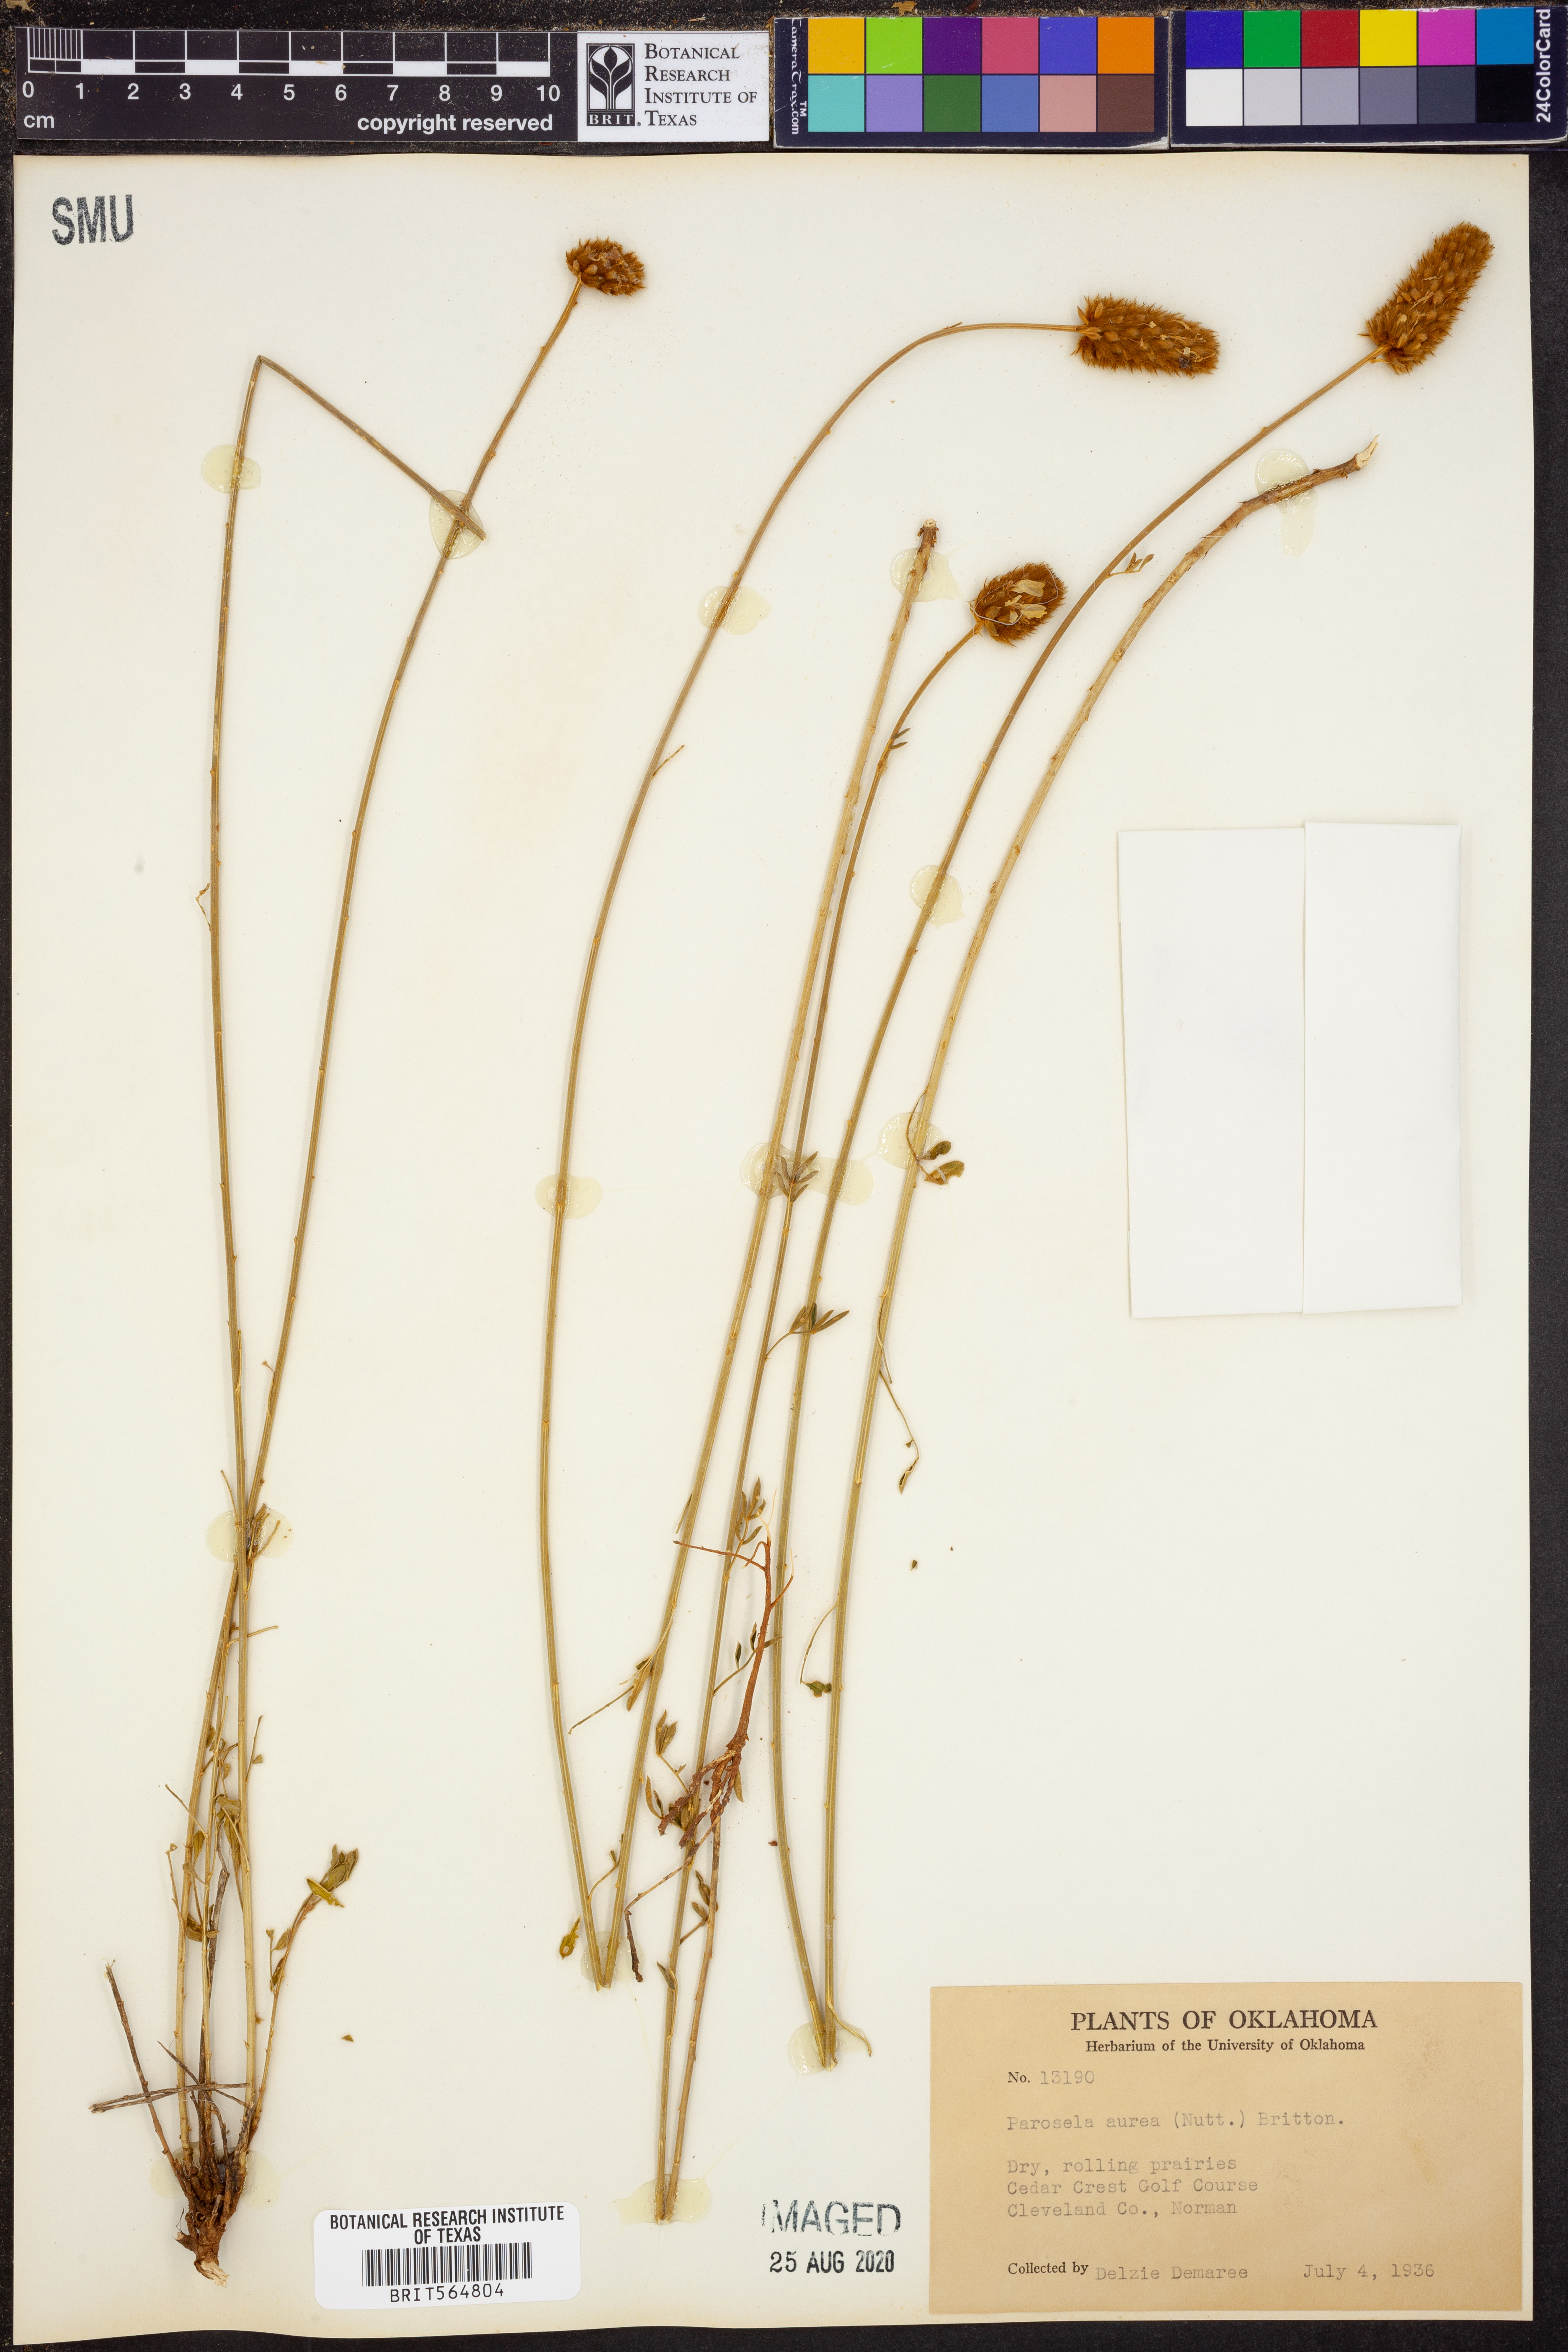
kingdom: Plantae
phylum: Tracheophyta
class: Magnoliopsida
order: Fabales
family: Fabaceae
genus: Dalea
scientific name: Dalea aurea
